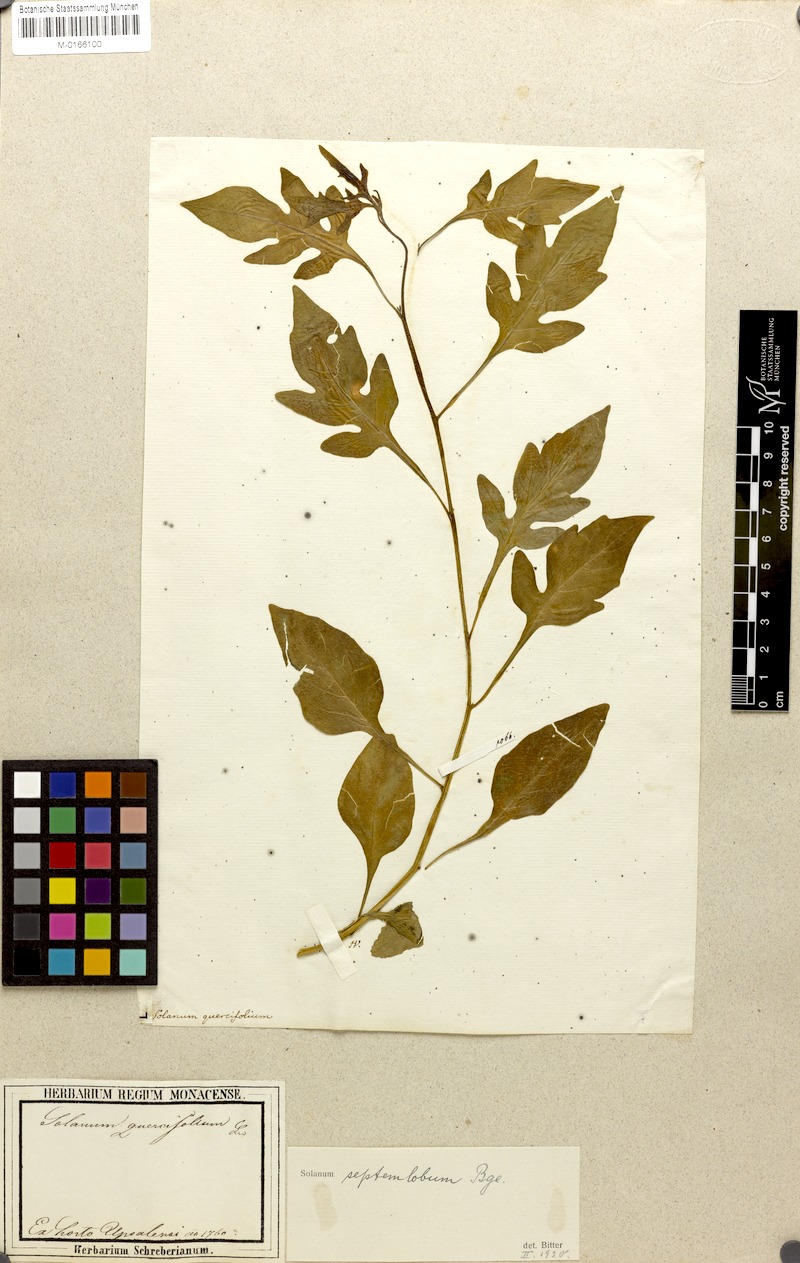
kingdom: Plantae
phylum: Tracheophyta
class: Magnoliopsida
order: Solanales
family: Solanaceae
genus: Solanum
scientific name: Solanum septemlobum
